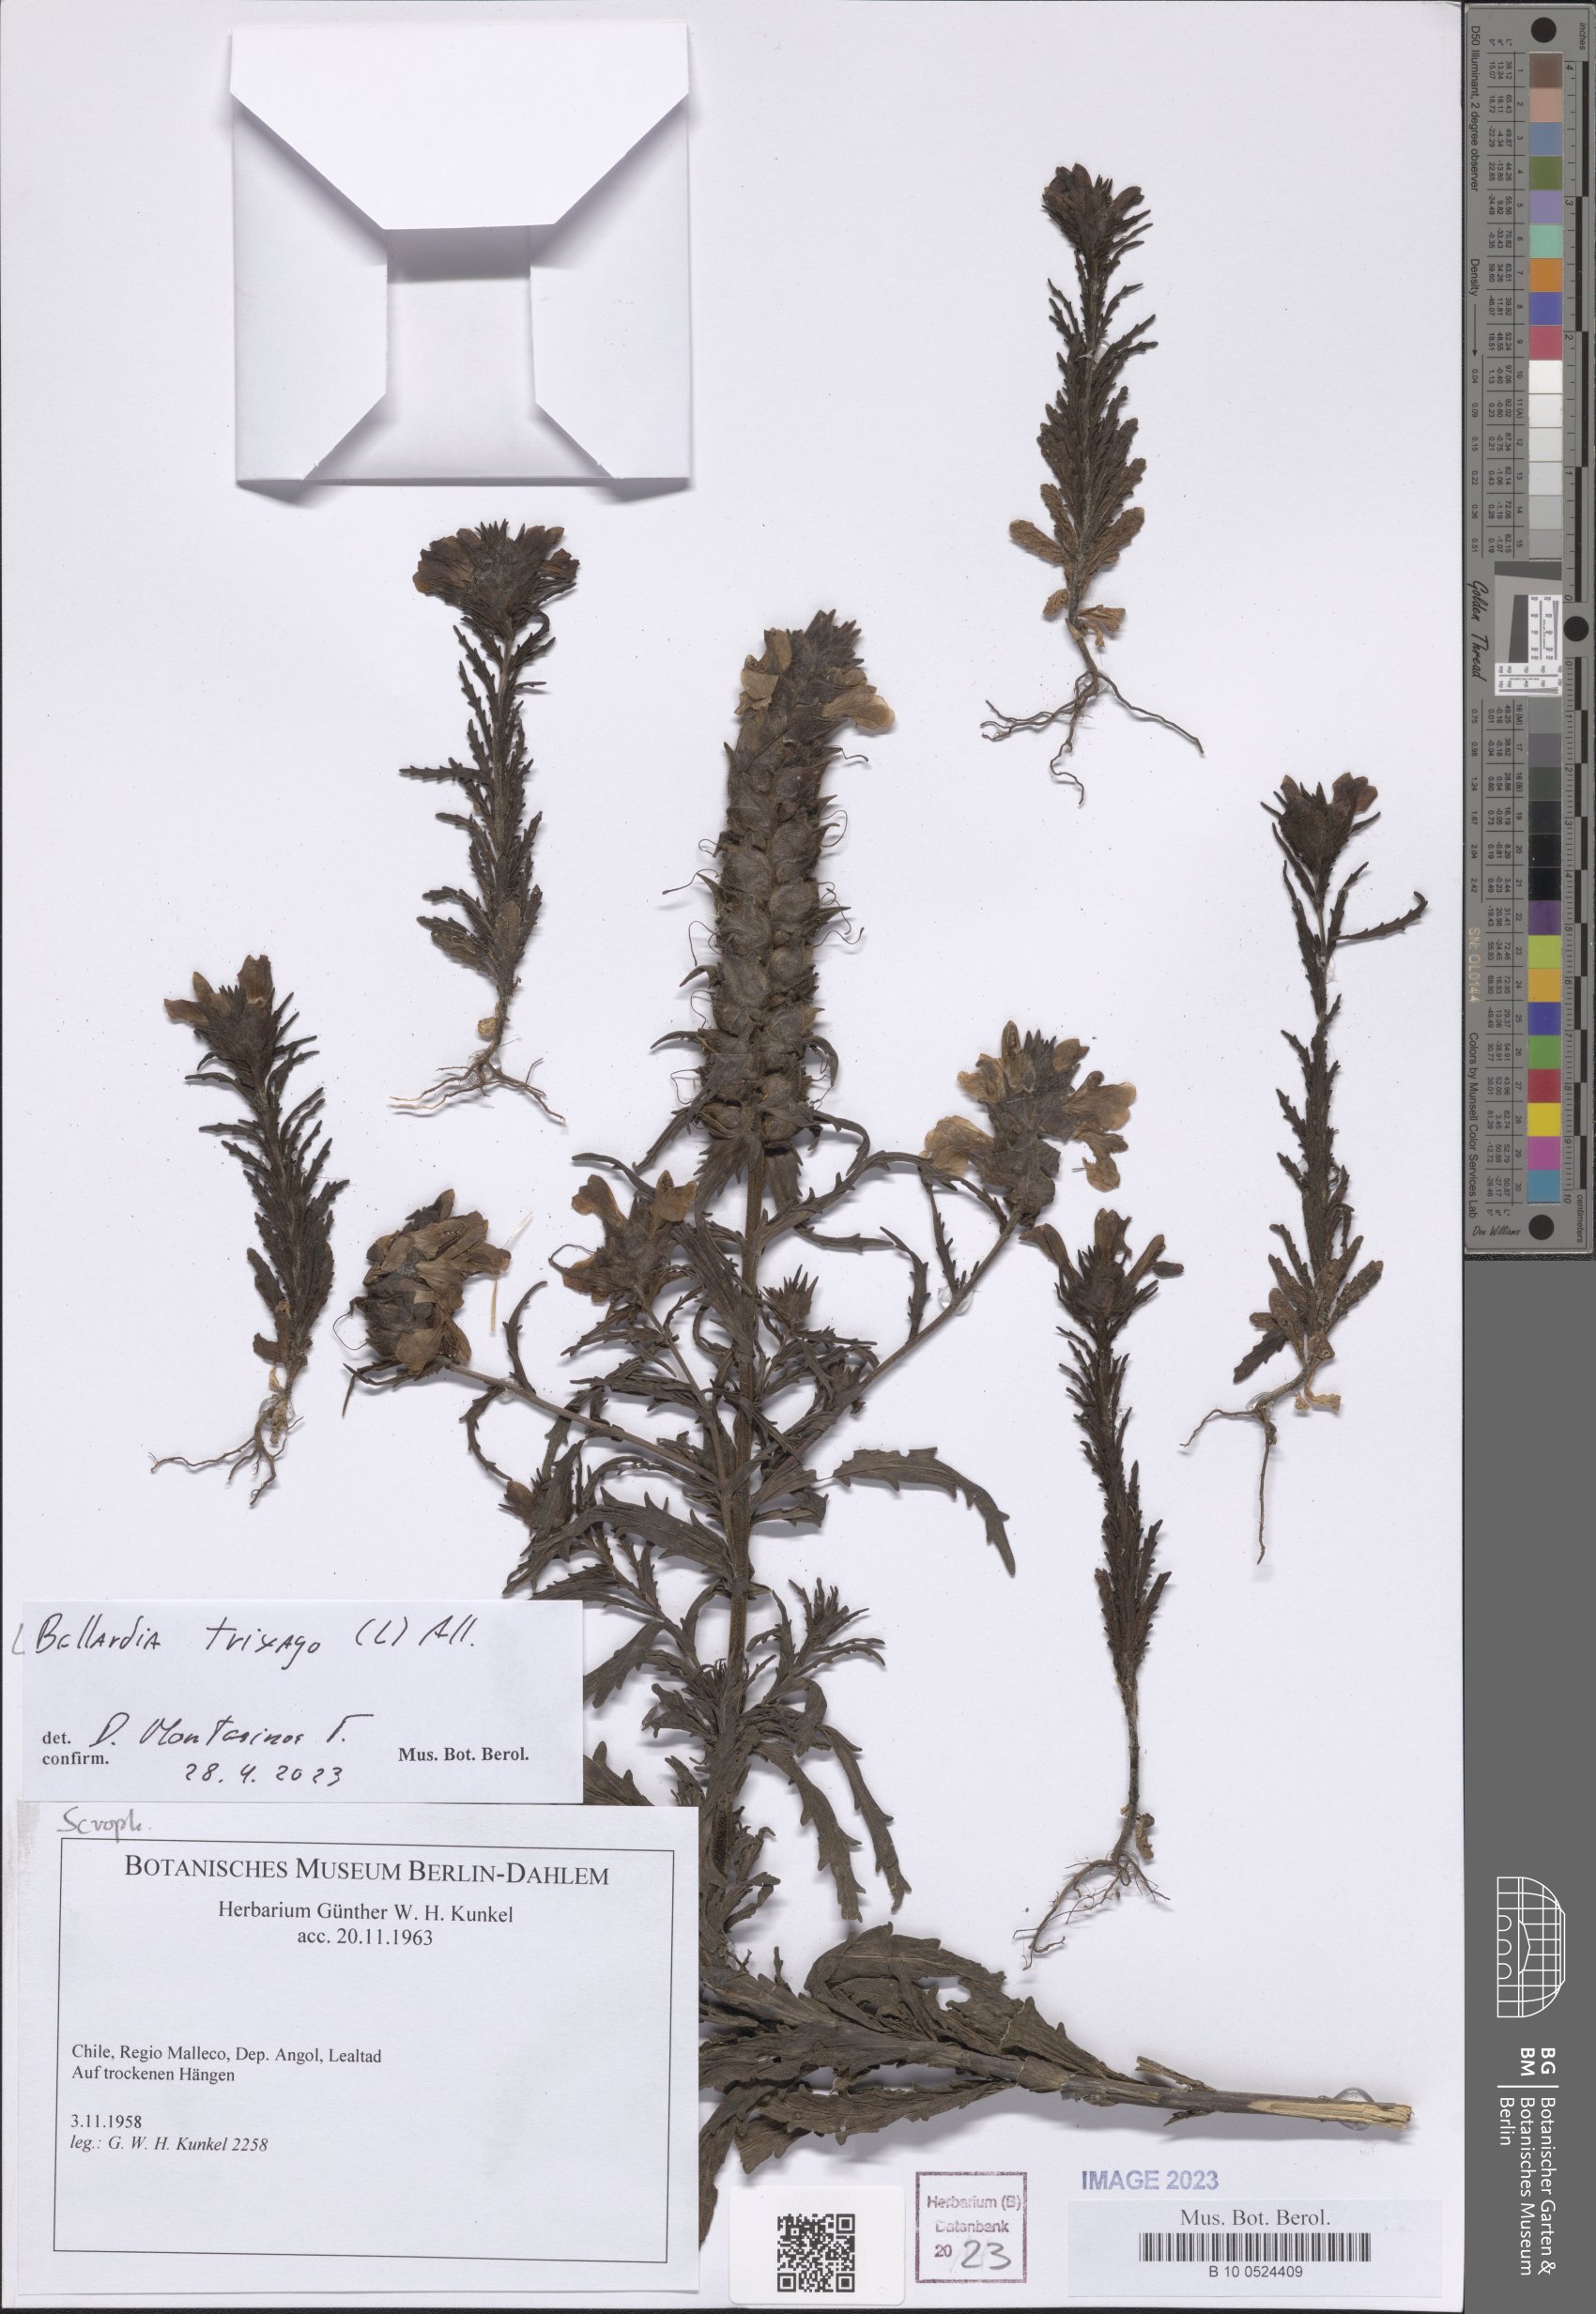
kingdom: Plantae
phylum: Tracheophyta
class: Magnoliopsida
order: Lamiales
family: Orobanchaceae
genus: Bellardia
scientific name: Bellardia trixago
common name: Mediterranean lineseed
